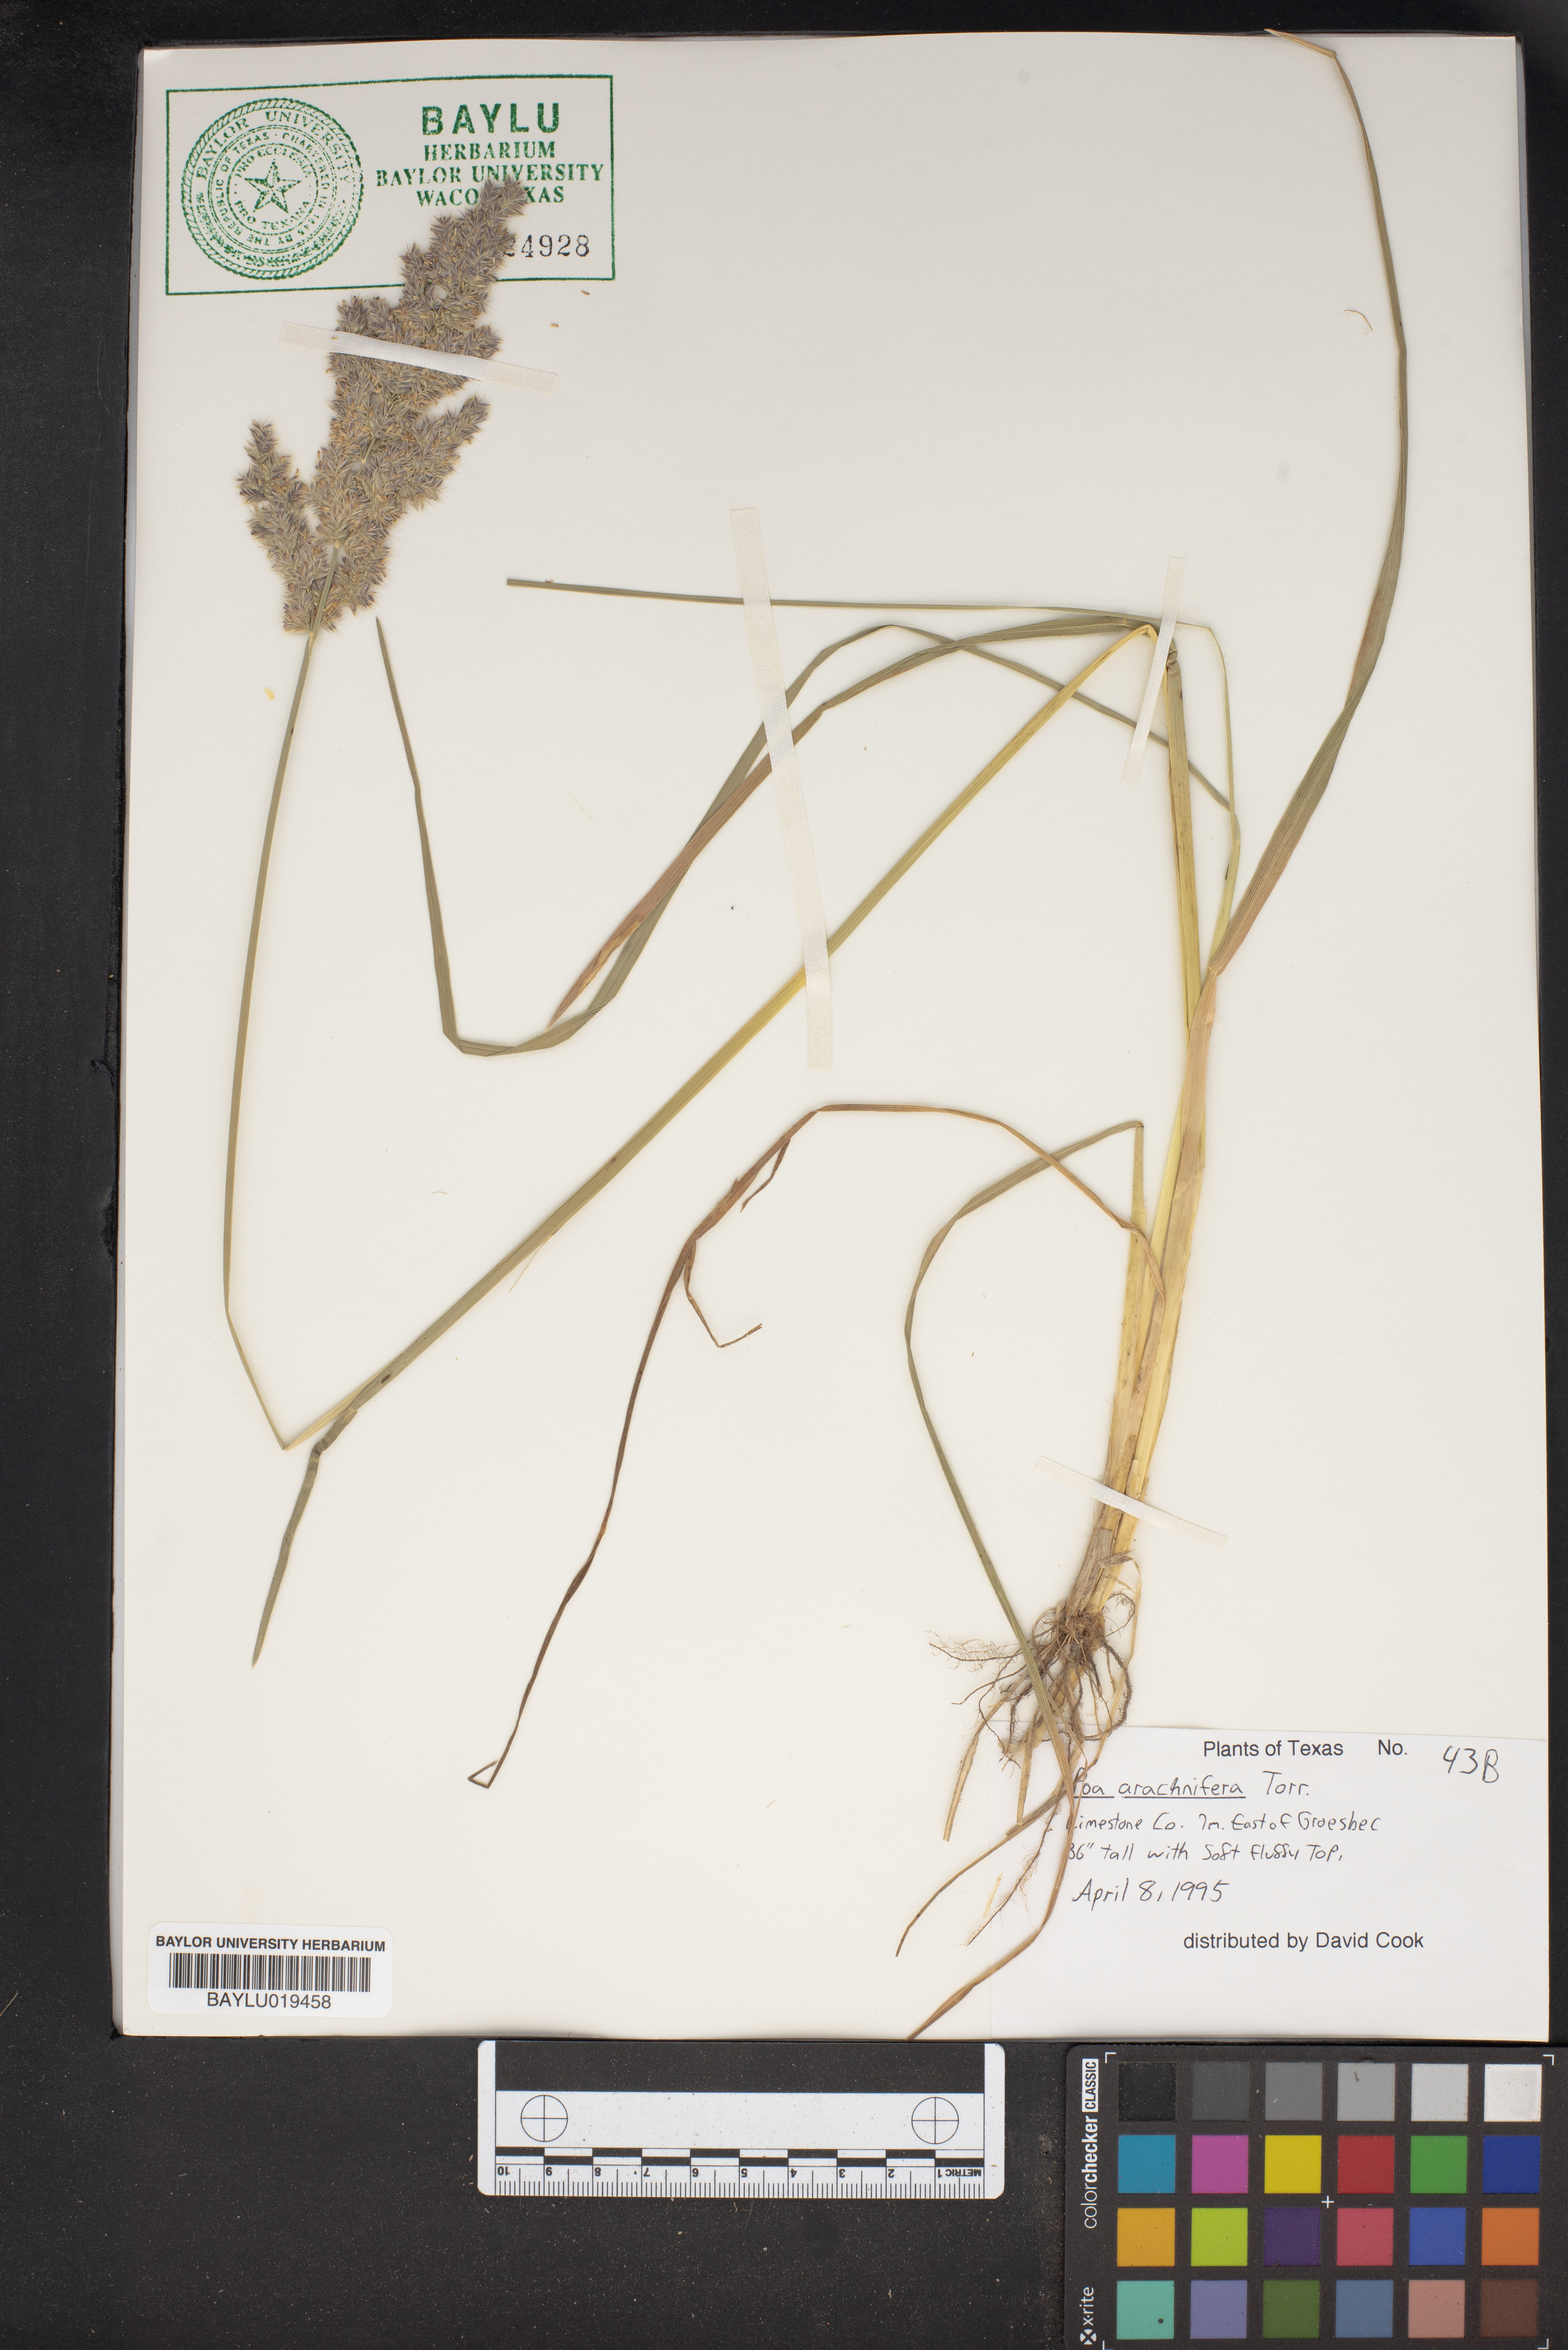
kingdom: Plantae
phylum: Tracheophyta
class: Liliopsida
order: Poales
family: Poaceae
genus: Poa
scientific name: Poa arachnifera
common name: Texas bluegrass
